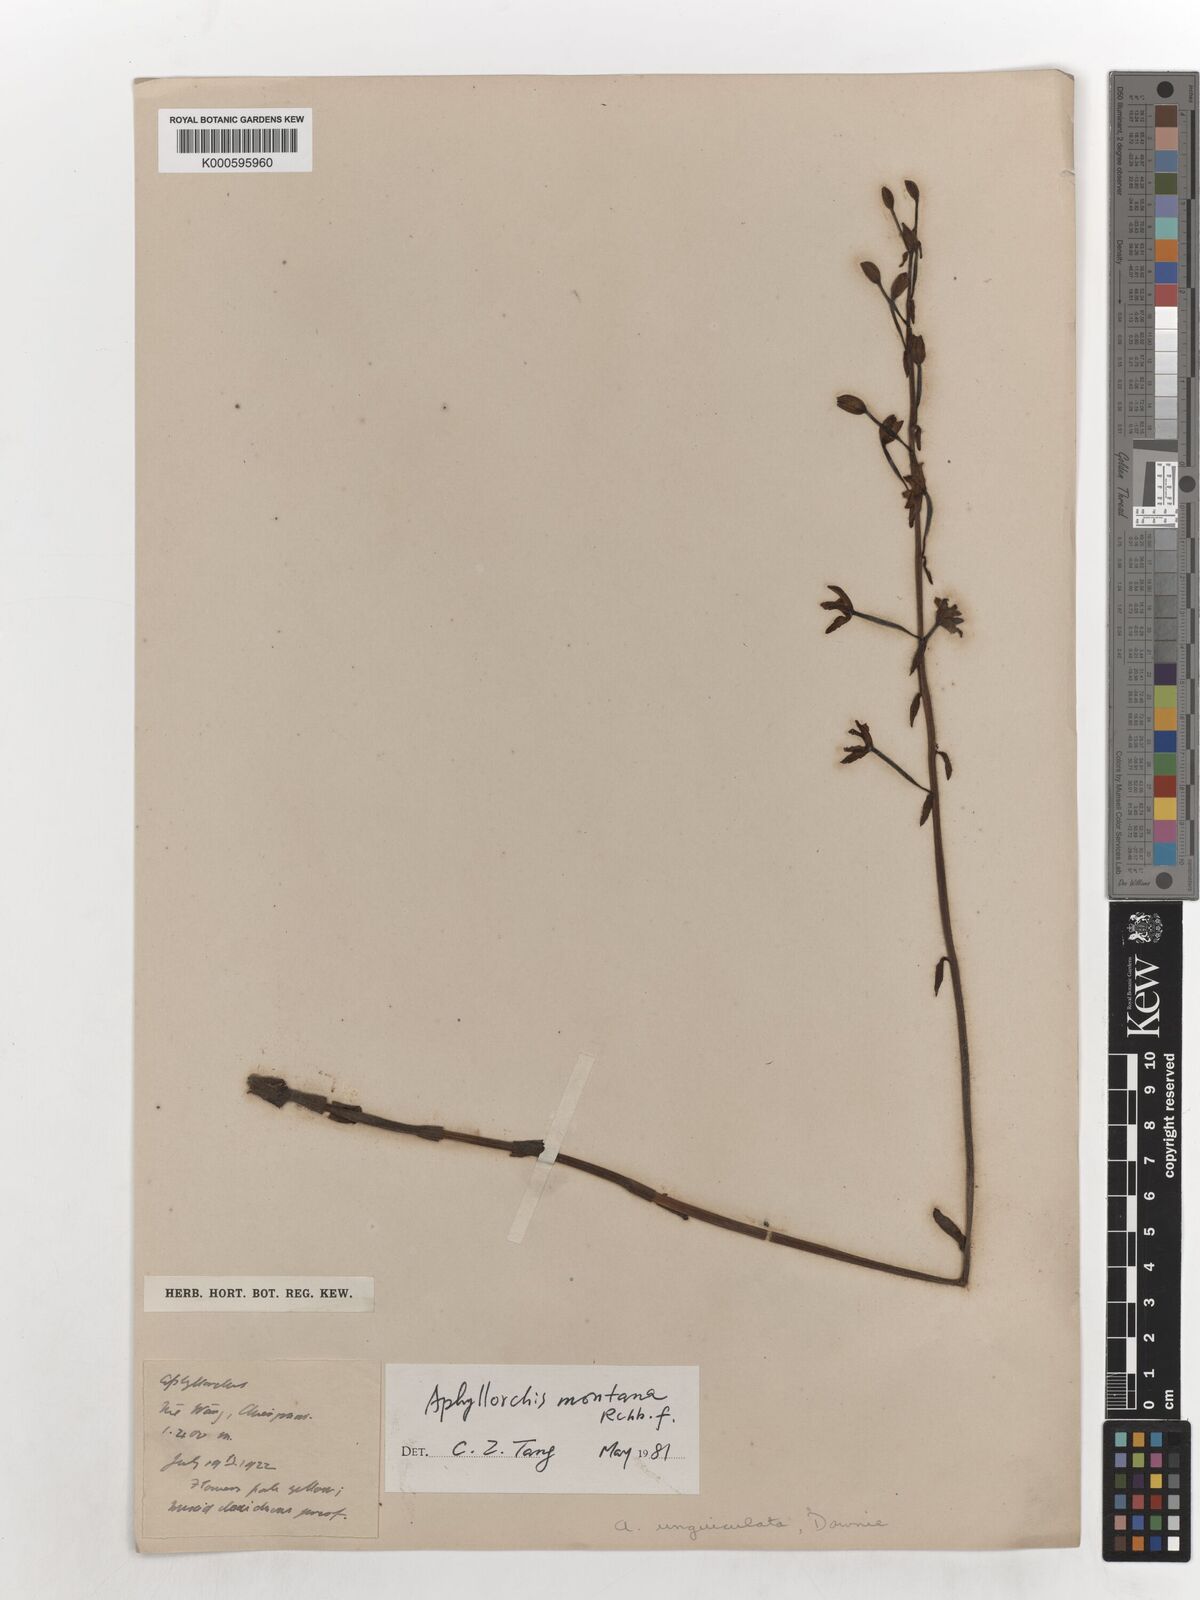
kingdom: Plantae
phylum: Tracheophyta
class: Liliopsida
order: Asparagales
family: Orchidaceae
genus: Aphyllorchis
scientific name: Aphyllorchis montana
